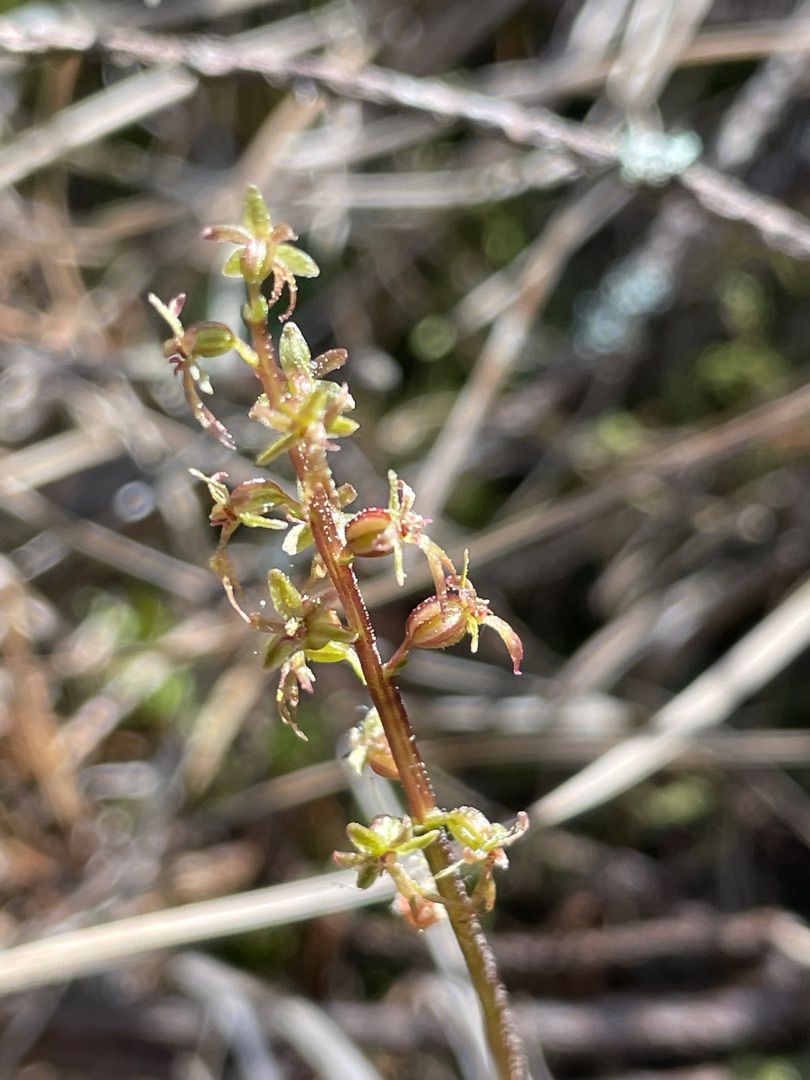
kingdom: Plantae
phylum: Tracheophyta
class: Liliopsida
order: Asparagales
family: Orchidaceae
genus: Neottia
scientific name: Neottia cordata
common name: Hjertebladet fliglæbe
